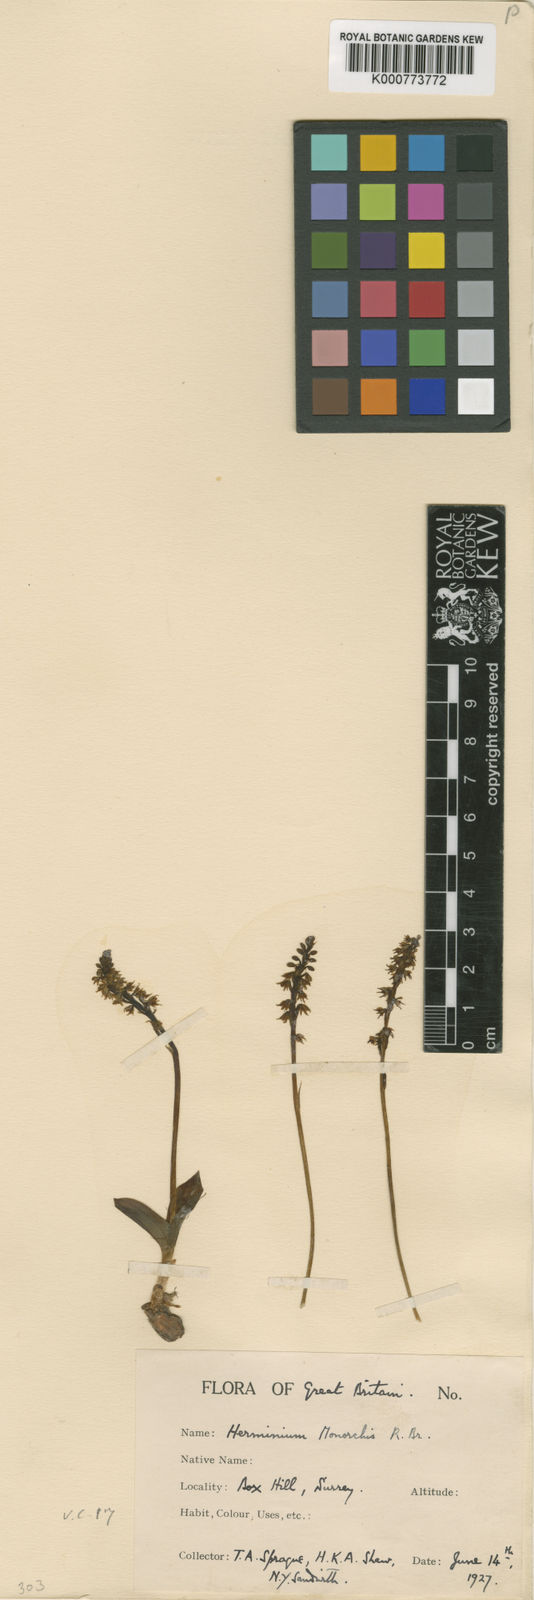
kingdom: Plantae
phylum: Tracheophyta
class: Liliopsida
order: Asparagales
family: Orchidaceae
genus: Herminium
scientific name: Herminium monorchis
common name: Musk orchid
